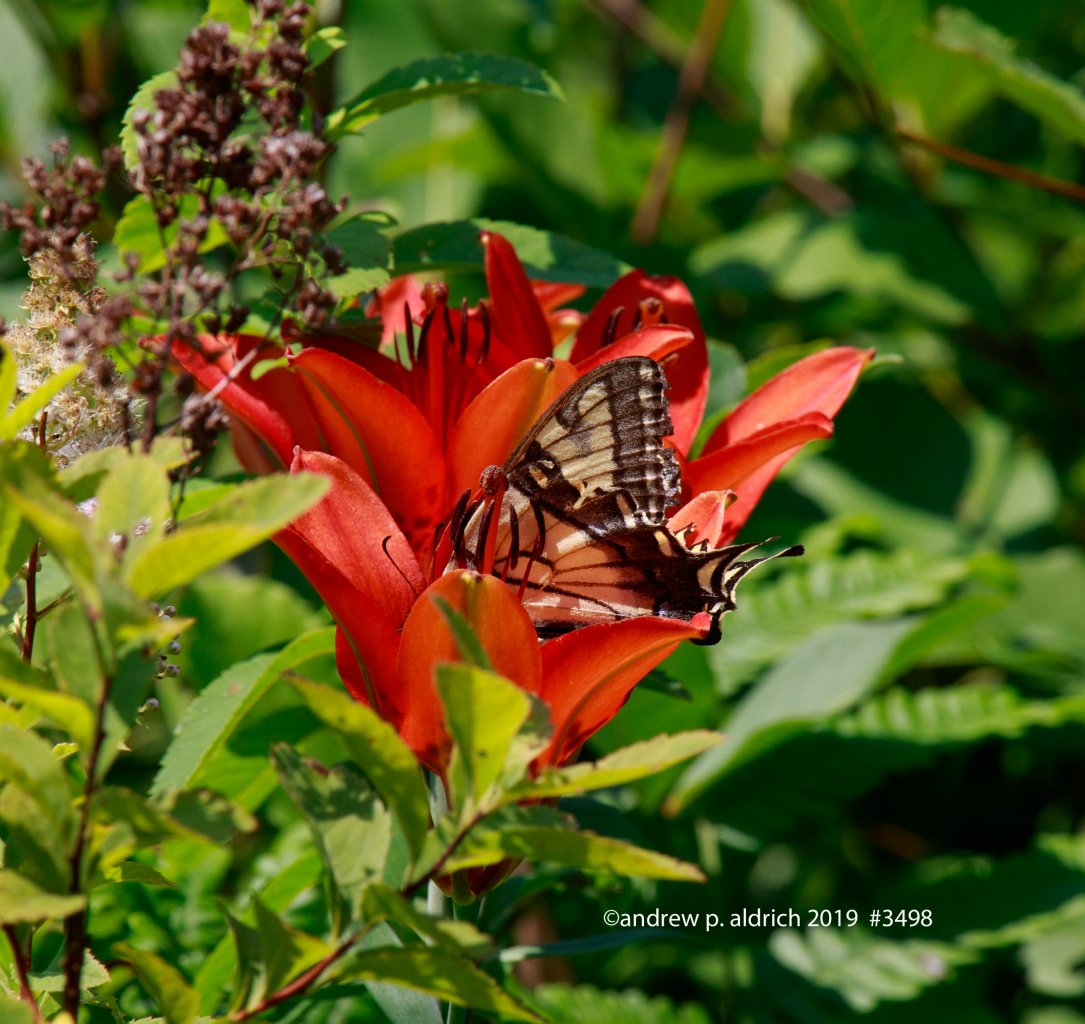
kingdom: Animalia
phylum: Arthropoda
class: Insecta
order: Lepidoptera
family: Papilionidae
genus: Pterourus
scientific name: Pterourus glaucus
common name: Eastern Tiger Swallowtail
